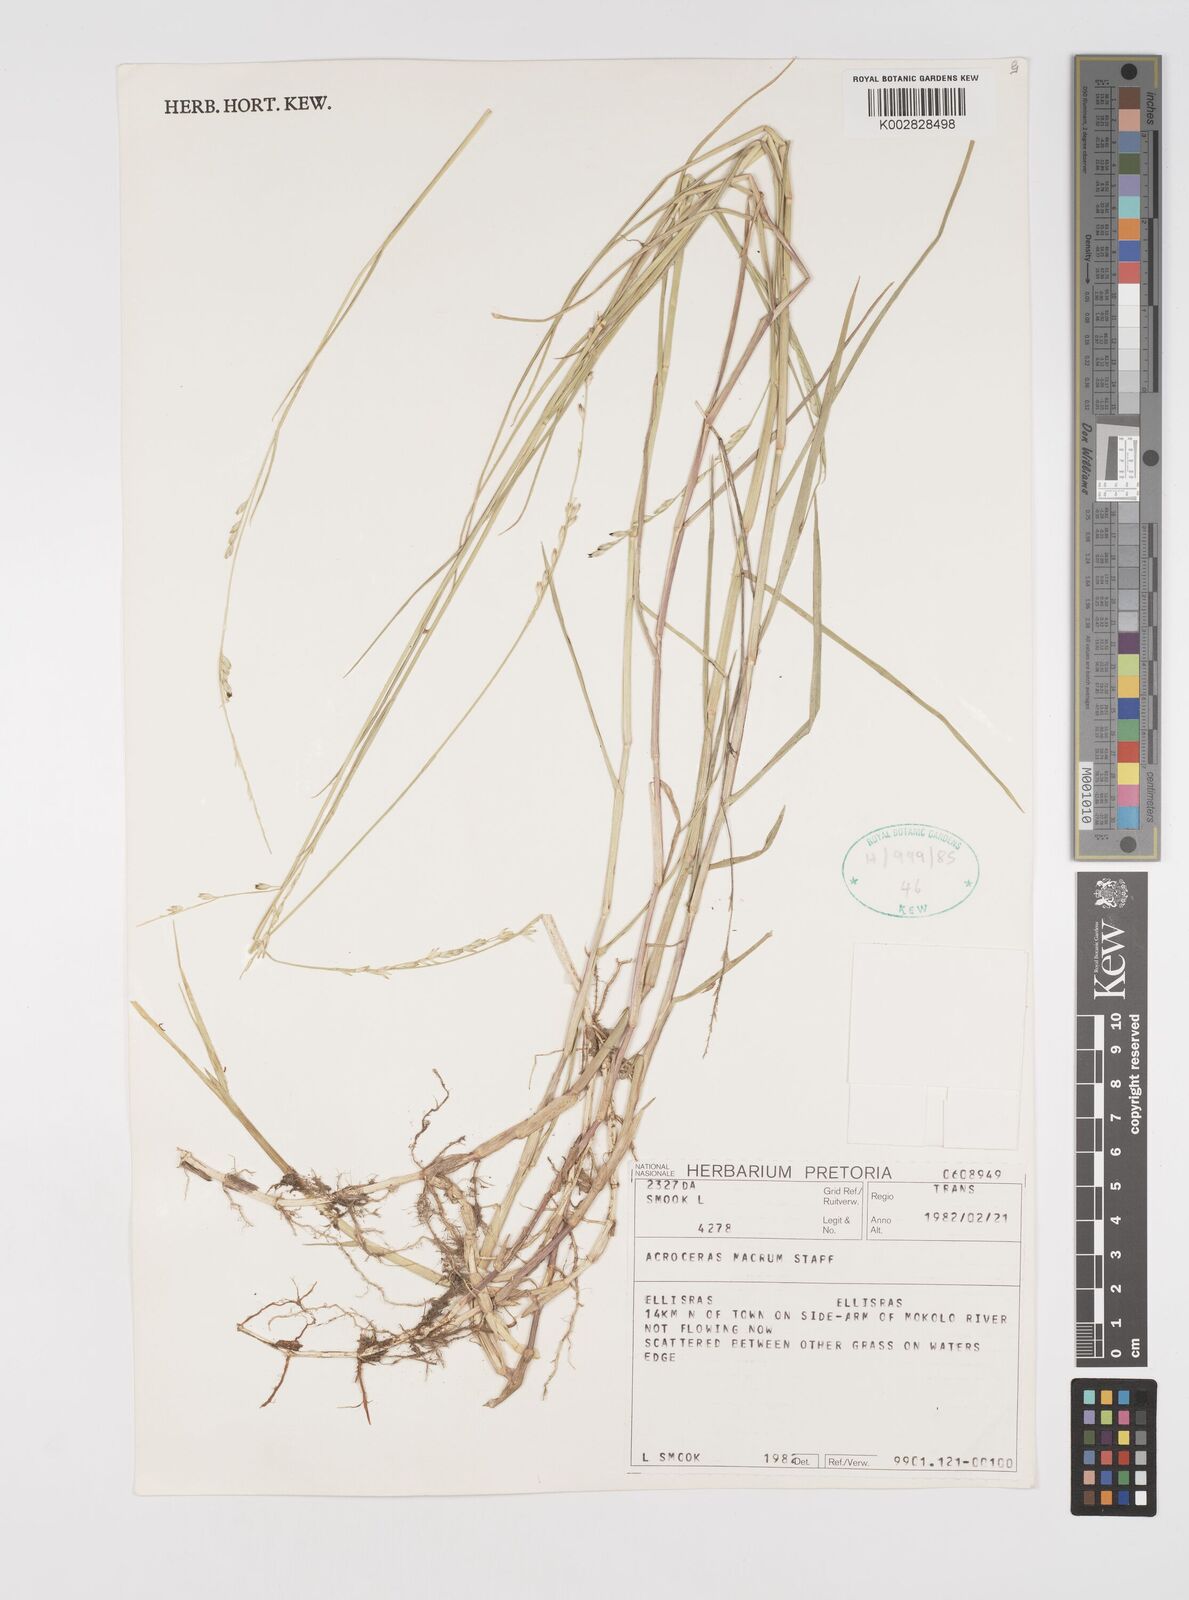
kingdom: Plantae
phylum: Tracheophyta
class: Liliopsida
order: Poales
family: Poaceae
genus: Acroceras
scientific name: Acroceras macrum
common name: Nyl grass
